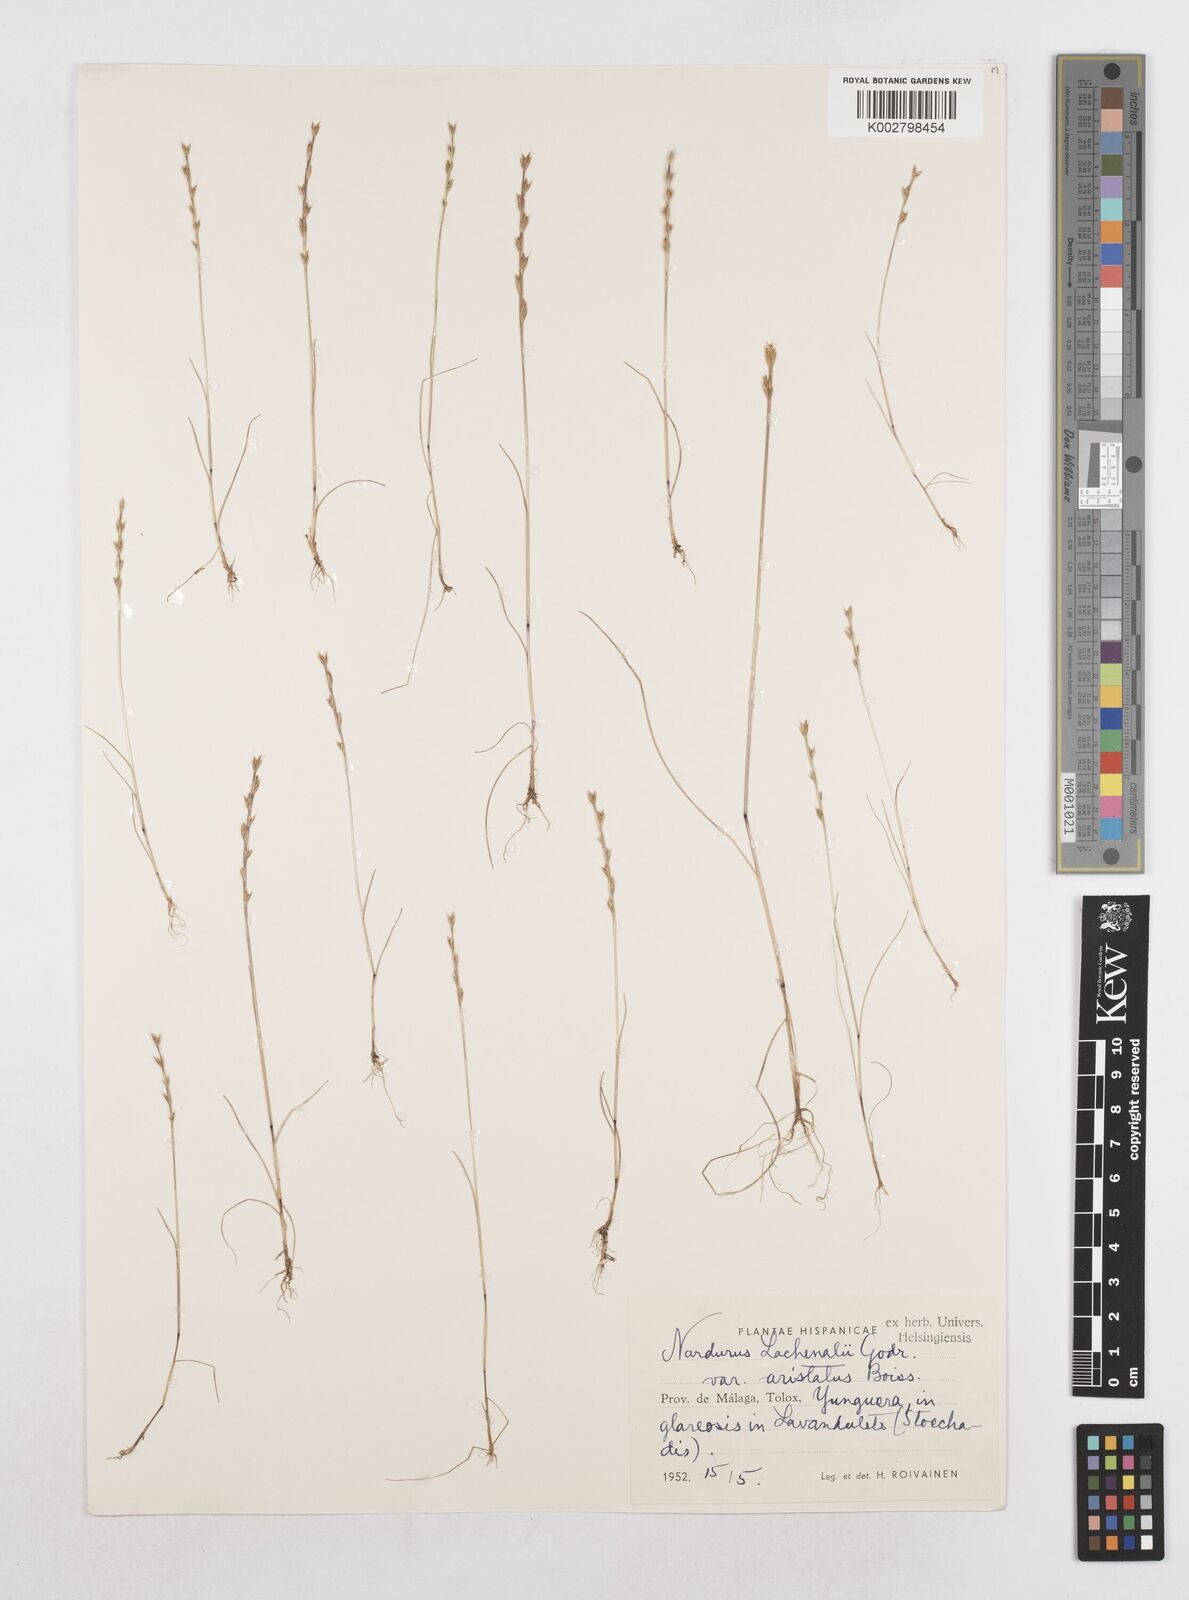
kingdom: Plantae
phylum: Tracheophyta
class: Liliopsida
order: Poales
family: Poaceae
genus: Festuca
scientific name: Festuca lachenalii
